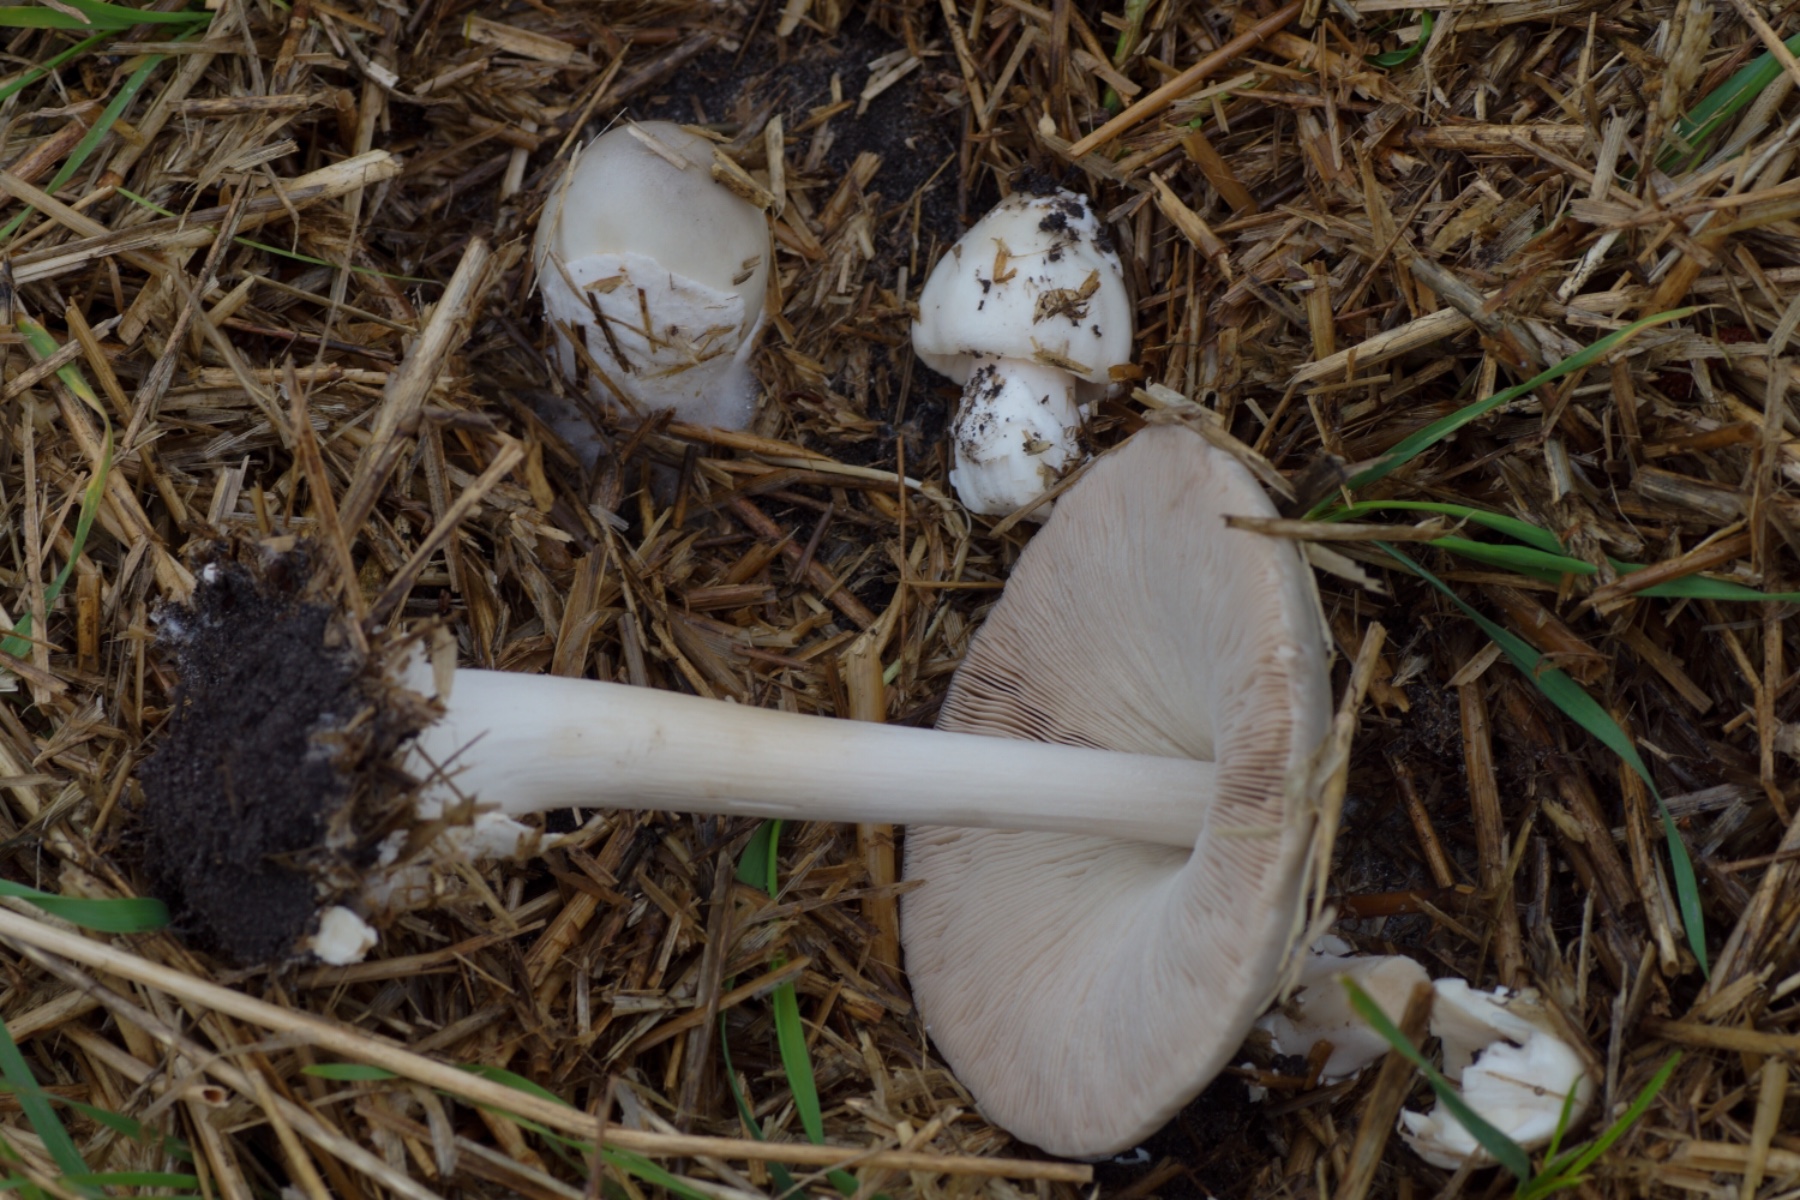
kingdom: Fungi
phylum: Basidiomycota
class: Agaricomycetes
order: Agaricales
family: Pluteaceae
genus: Volvopluteus
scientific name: Volvopluteus gloiocephalus
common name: høj posesvamp
